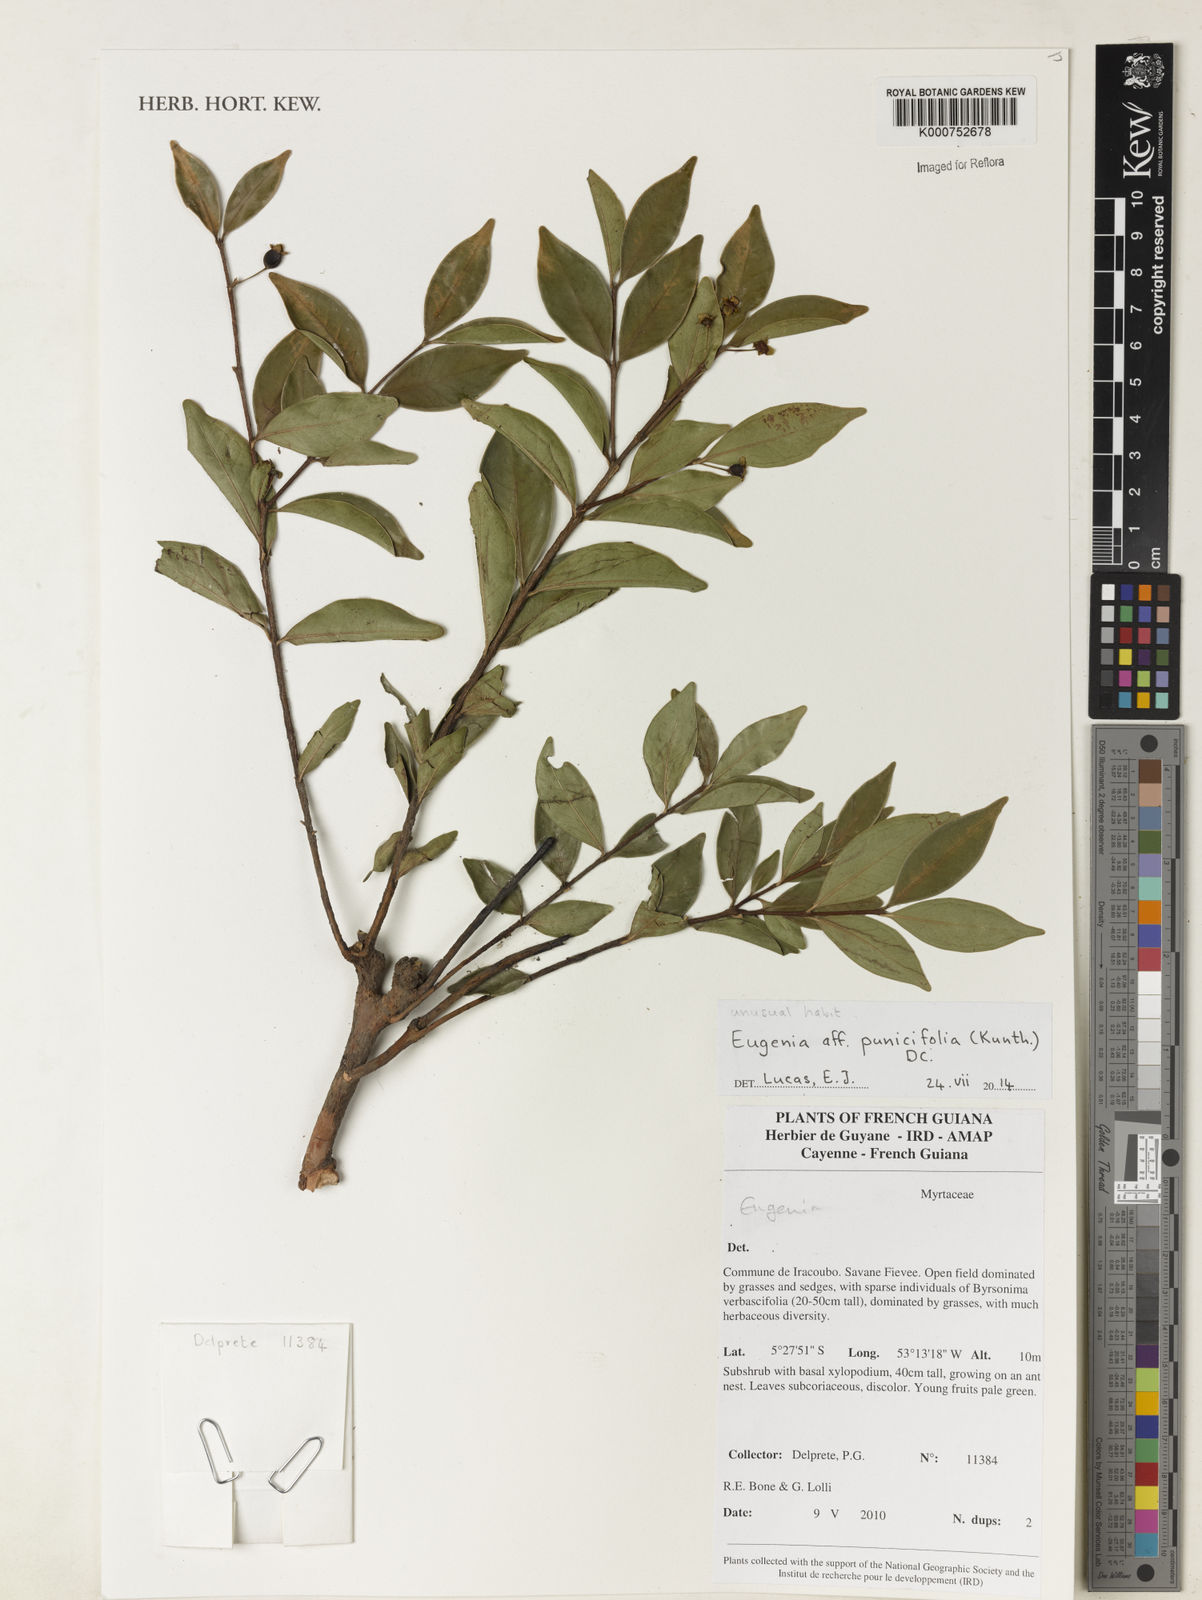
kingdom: Plantae
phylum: Tracheophyta
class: Magnoliopsida
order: Myrtales
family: Myrtaceae
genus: Eugenia
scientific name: Eugenia punicifolia
